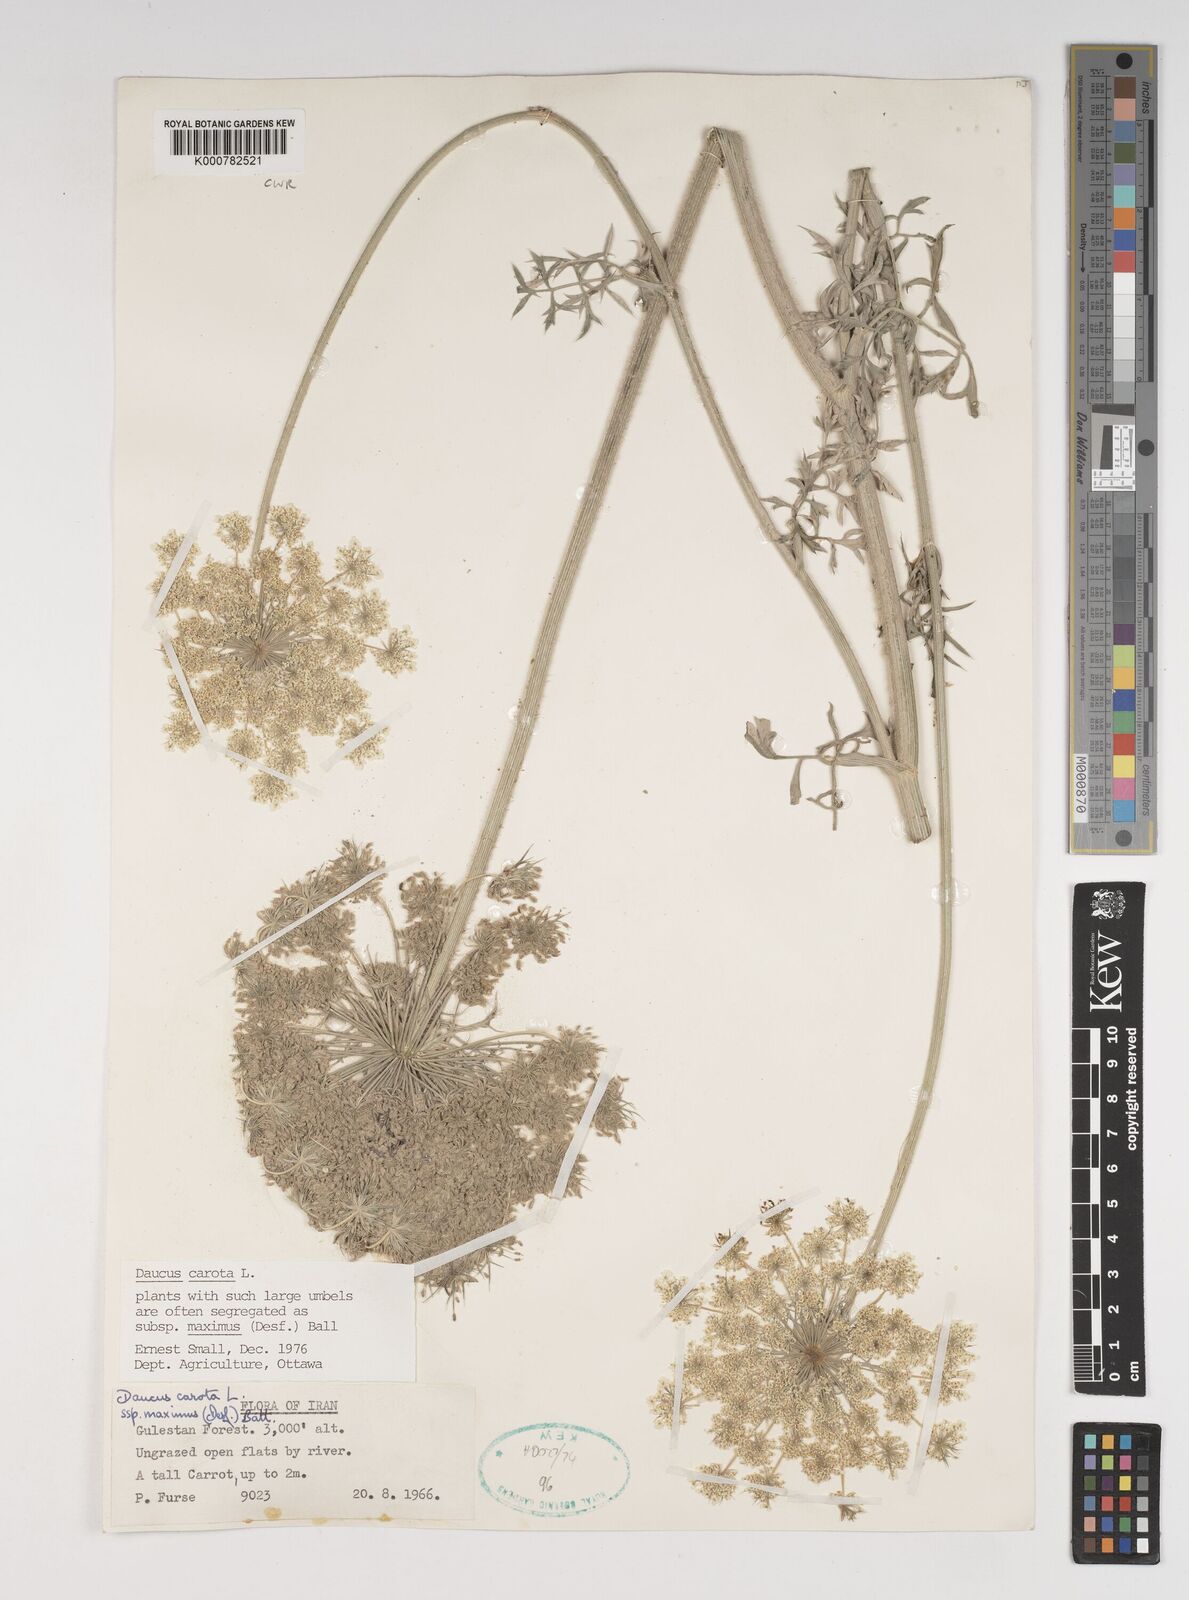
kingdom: Plantae
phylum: Tracheophyta
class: Magnoliopsida
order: Apiales
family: Apiaceae
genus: Daucus
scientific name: Daucus carota
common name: Wild carrot
